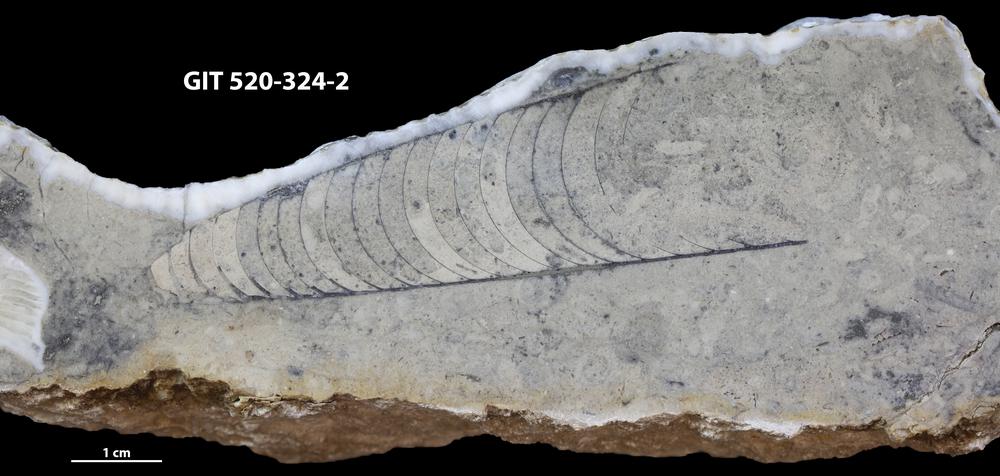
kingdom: Animalia
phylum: Mollusca
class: Cephalopoda
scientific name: Cephalopoda
